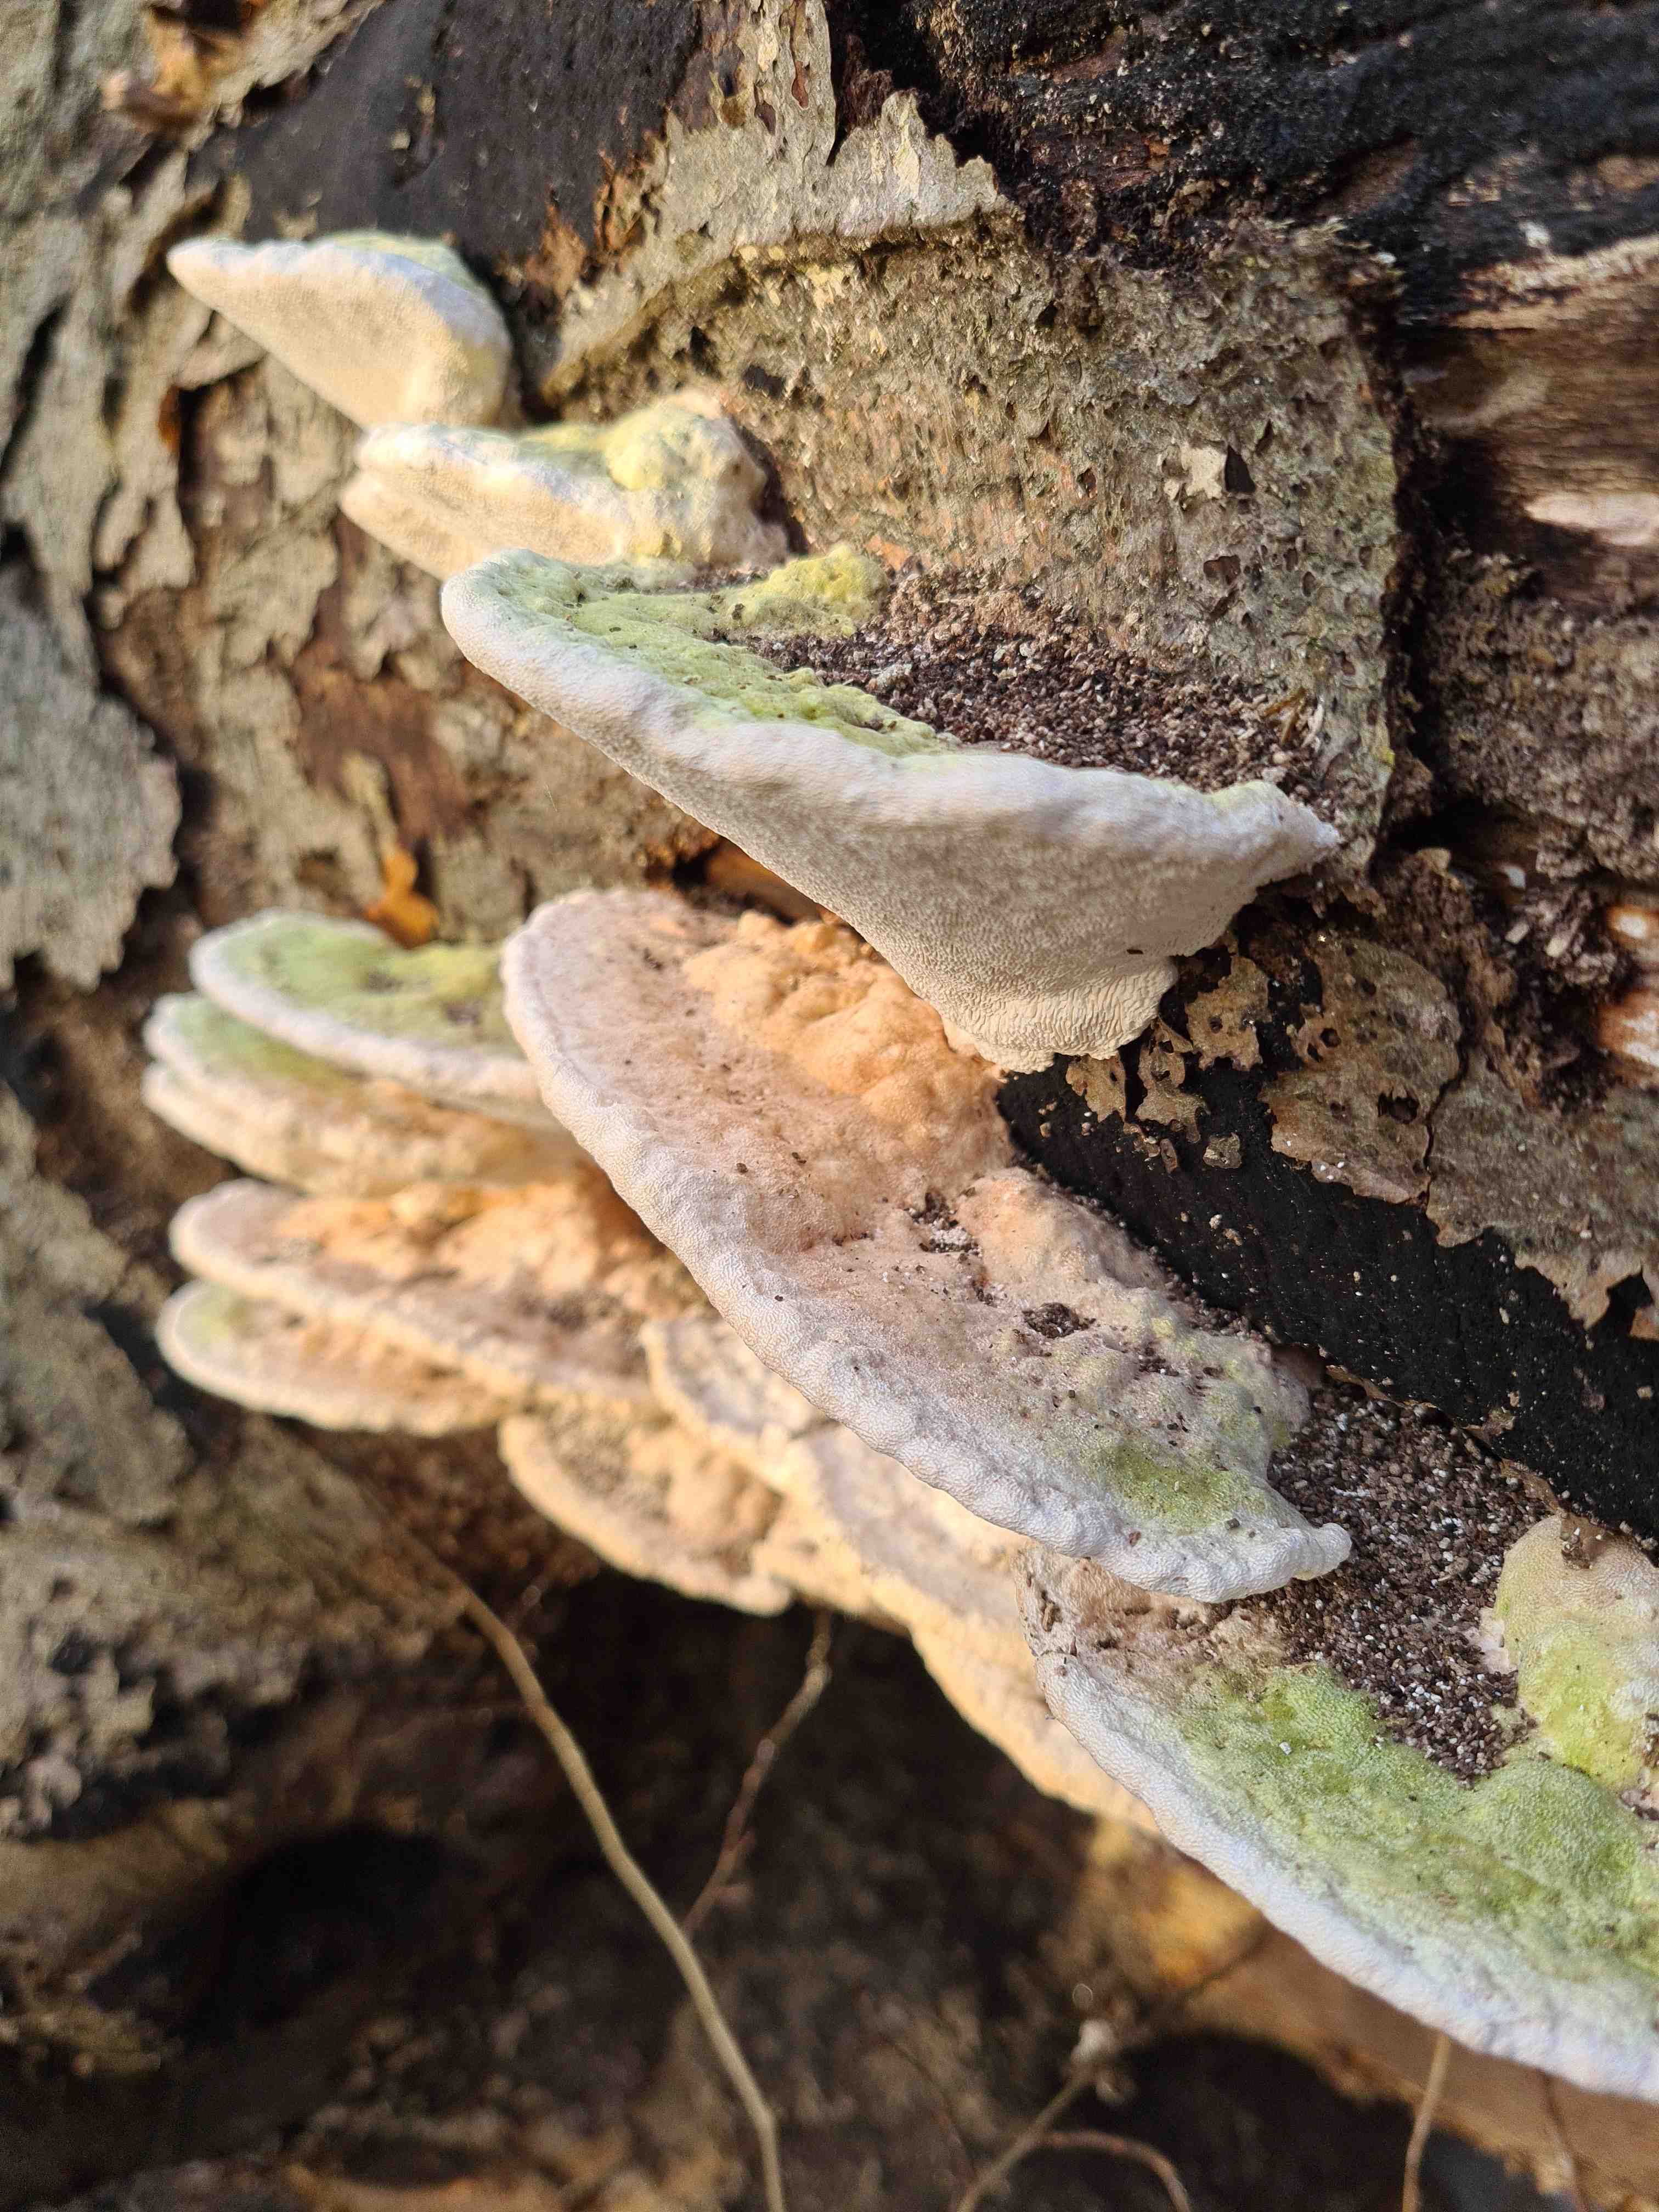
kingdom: Fungi
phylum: Basidiomycota
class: Agaricomycetes
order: Polyporales
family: Polyporaceae
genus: Trametes
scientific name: Trametes gibbosa
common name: puklet læderporesvamp
